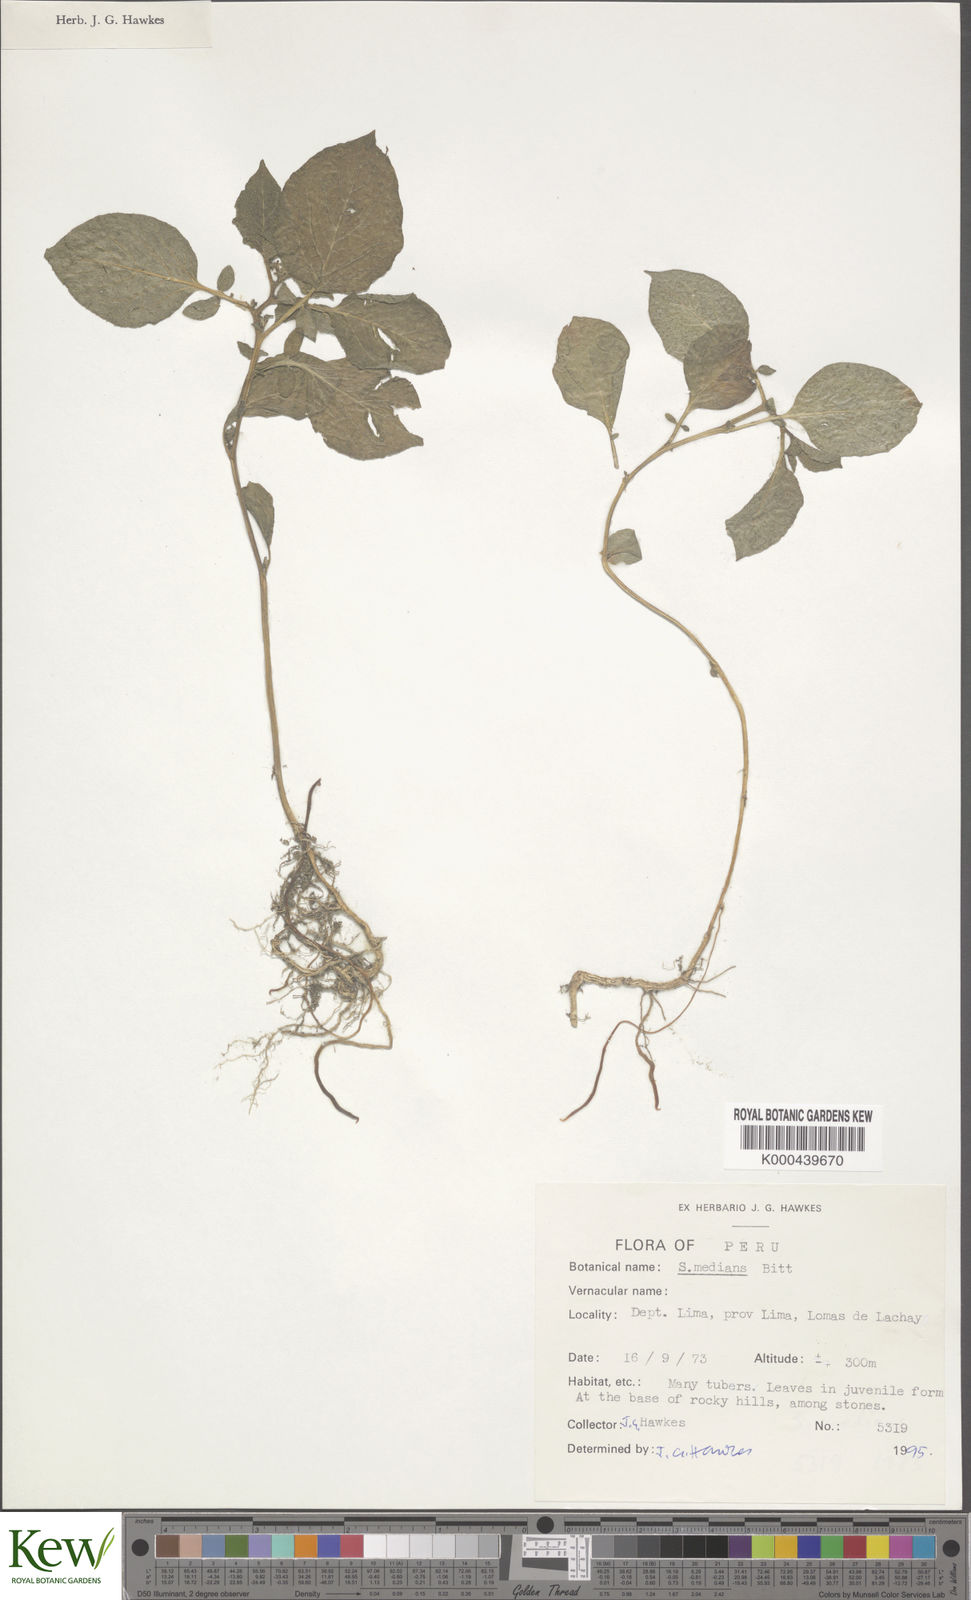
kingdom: Plantae
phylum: Tracheophyta
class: Magnoliopsida
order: Solanales
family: Solanaceae
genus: Solanum
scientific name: Solanum medians
